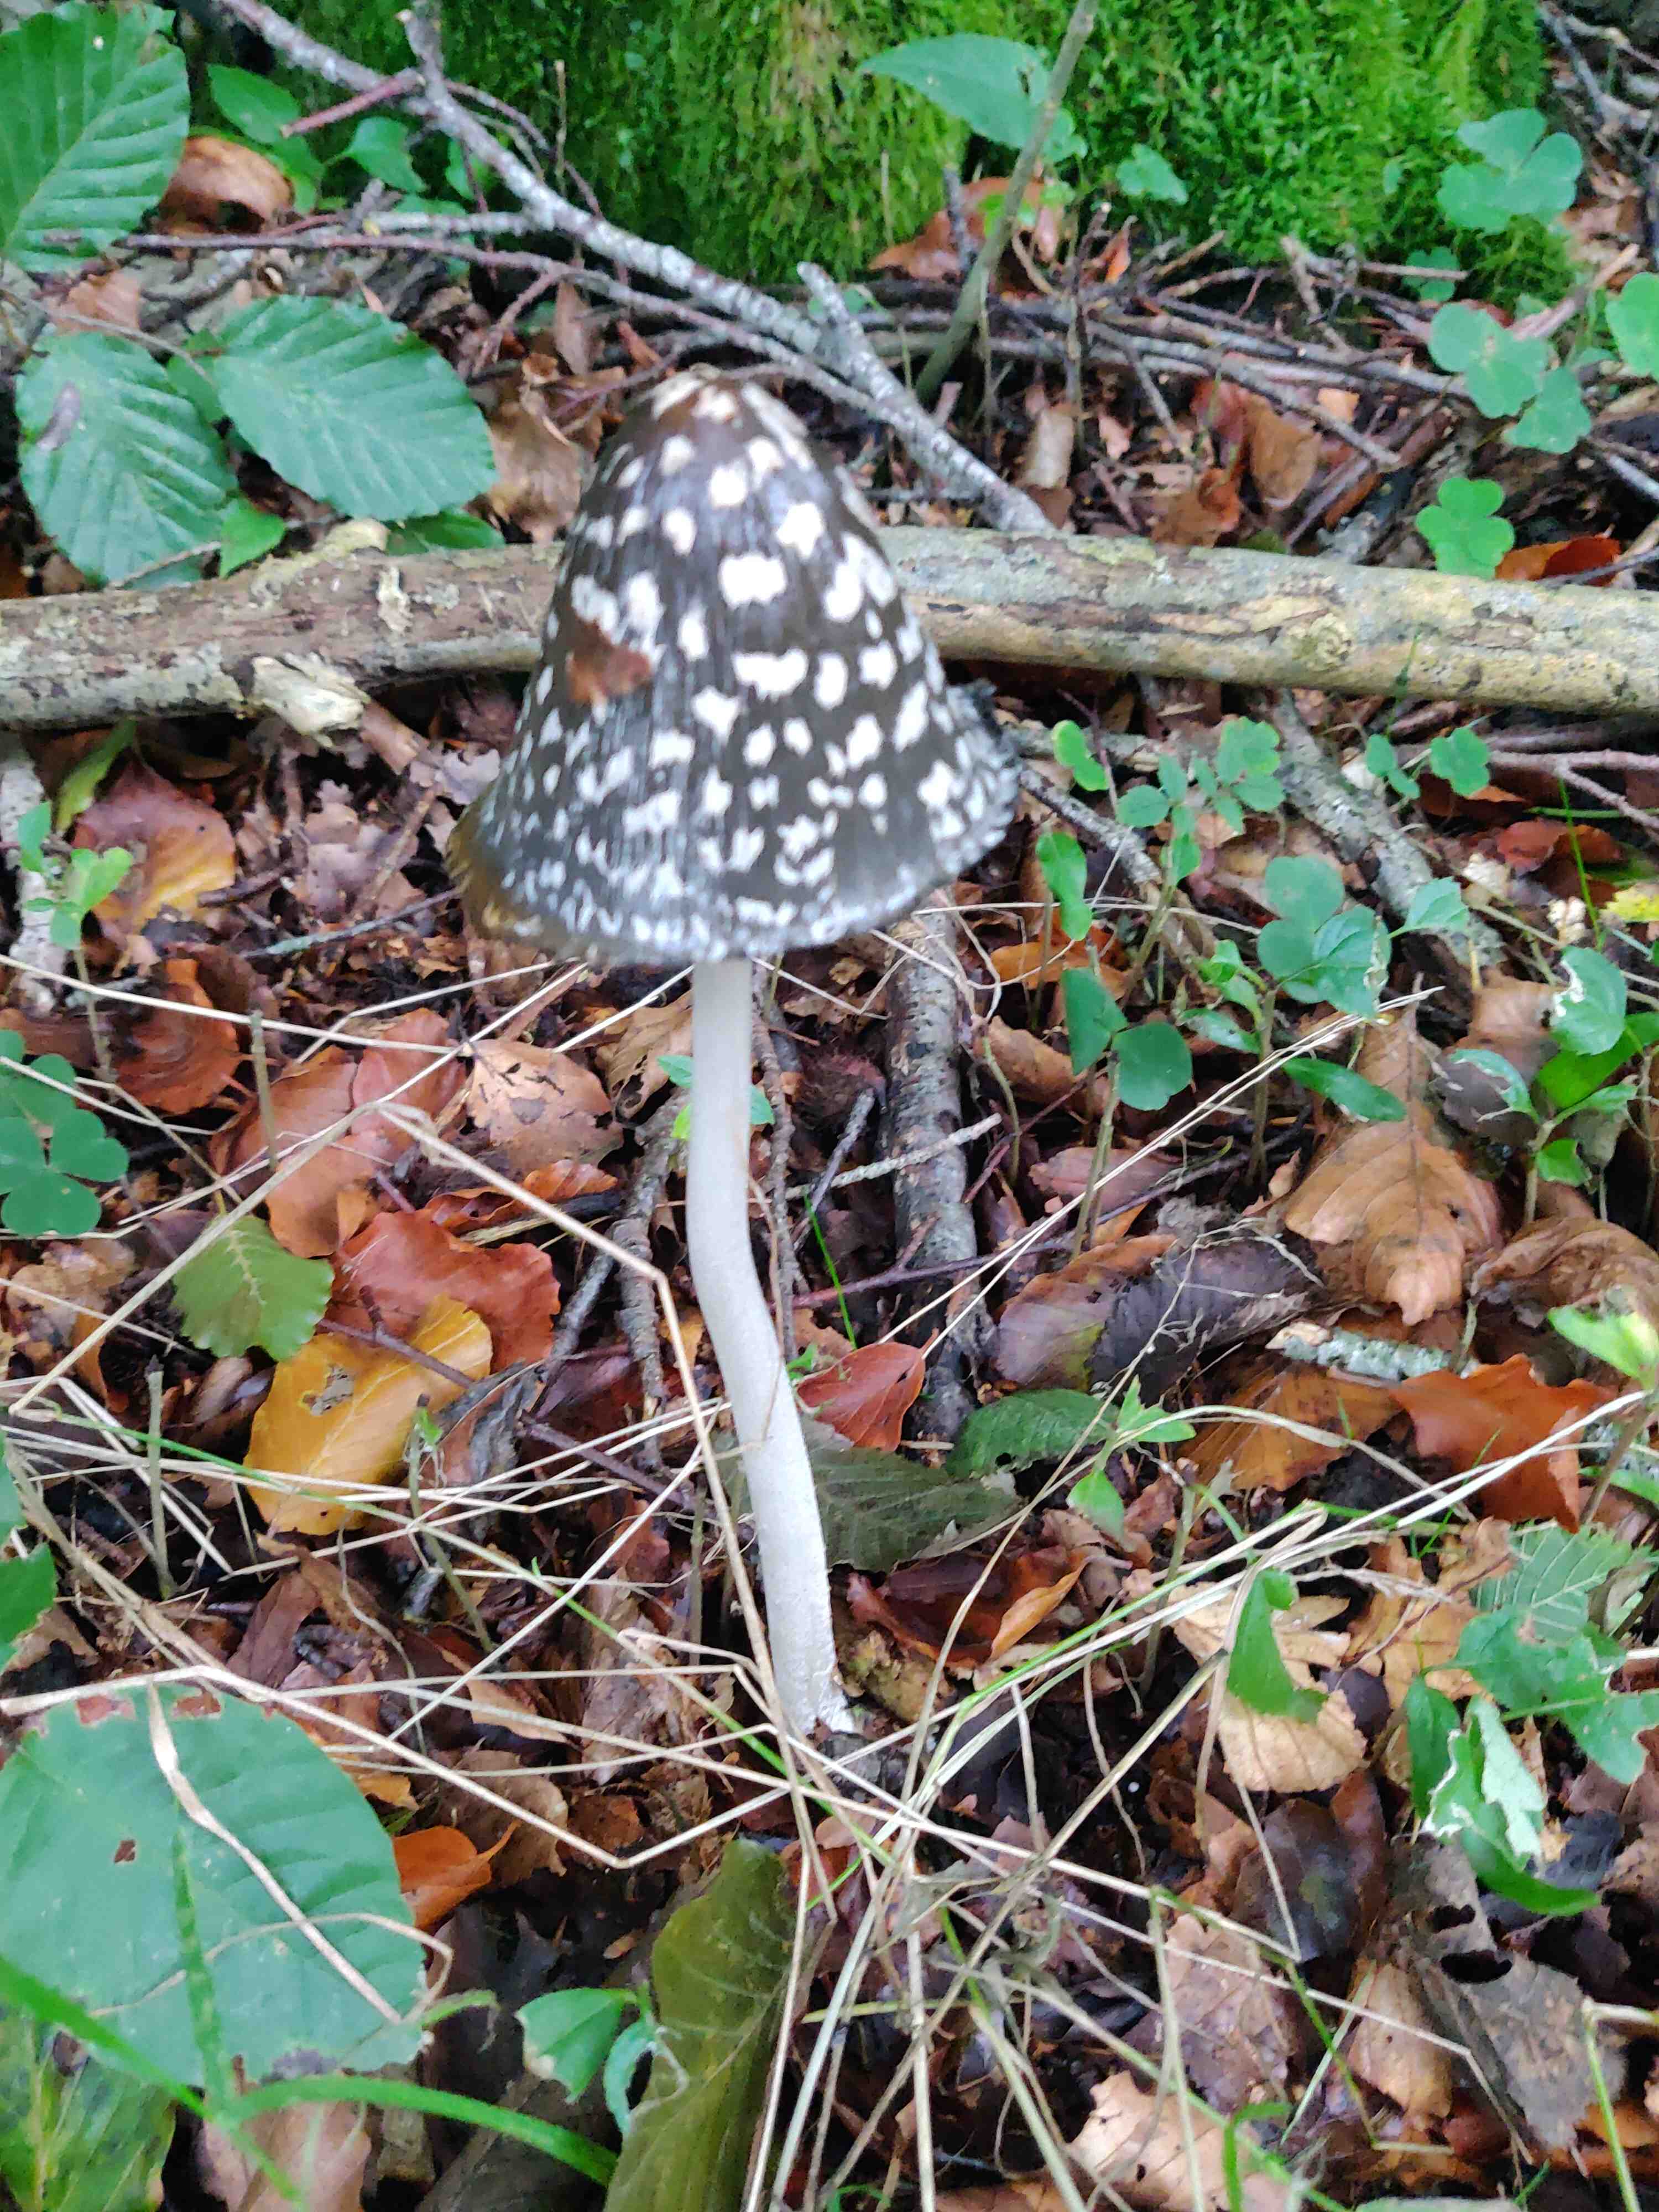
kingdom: Fungi
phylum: Basidiomycota
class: Agaricomycetes
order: Agaricales
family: Psathyrellaceae
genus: Coprinopsis
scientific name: Coprinopsis picacea
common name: skade-blækhat
